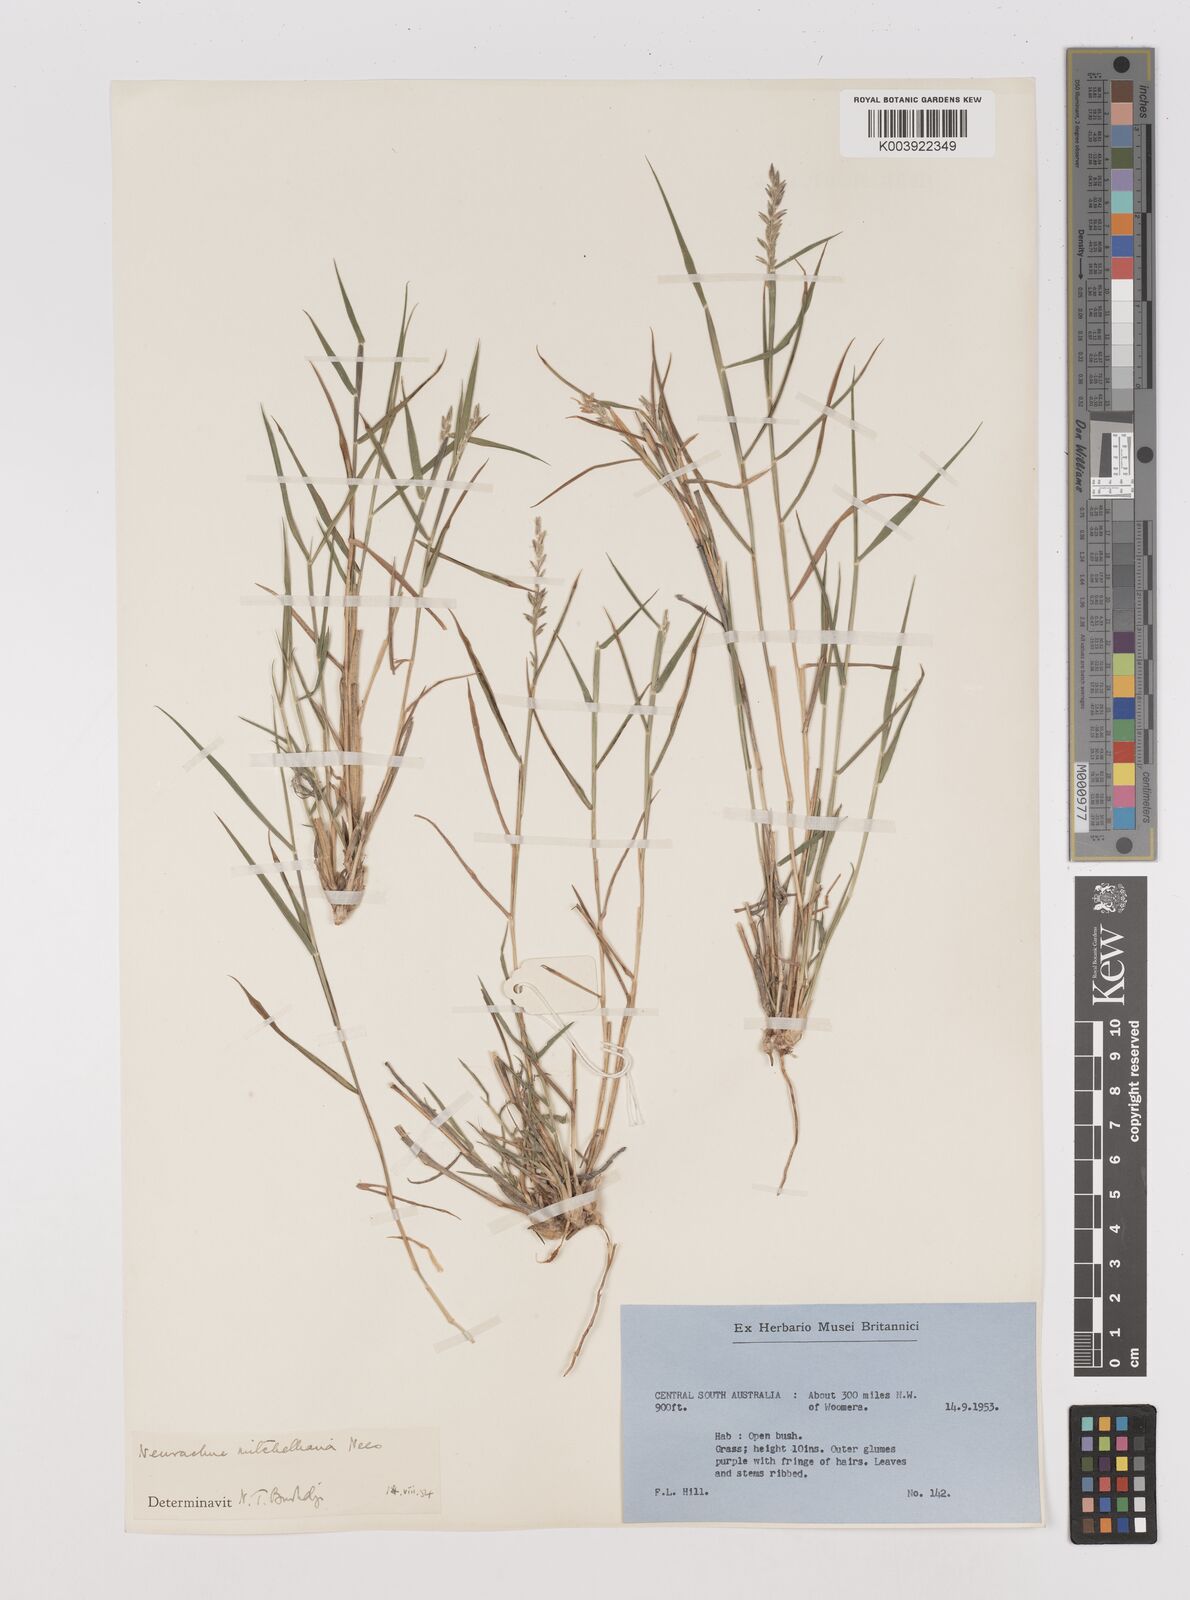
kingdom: Plantae
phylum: Tracheophyta
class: Liliopsida
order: Poales
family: Poaceae
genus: Thyridolepis
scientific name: Thyridolepis mitchelliana
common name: Rock tassel grass
